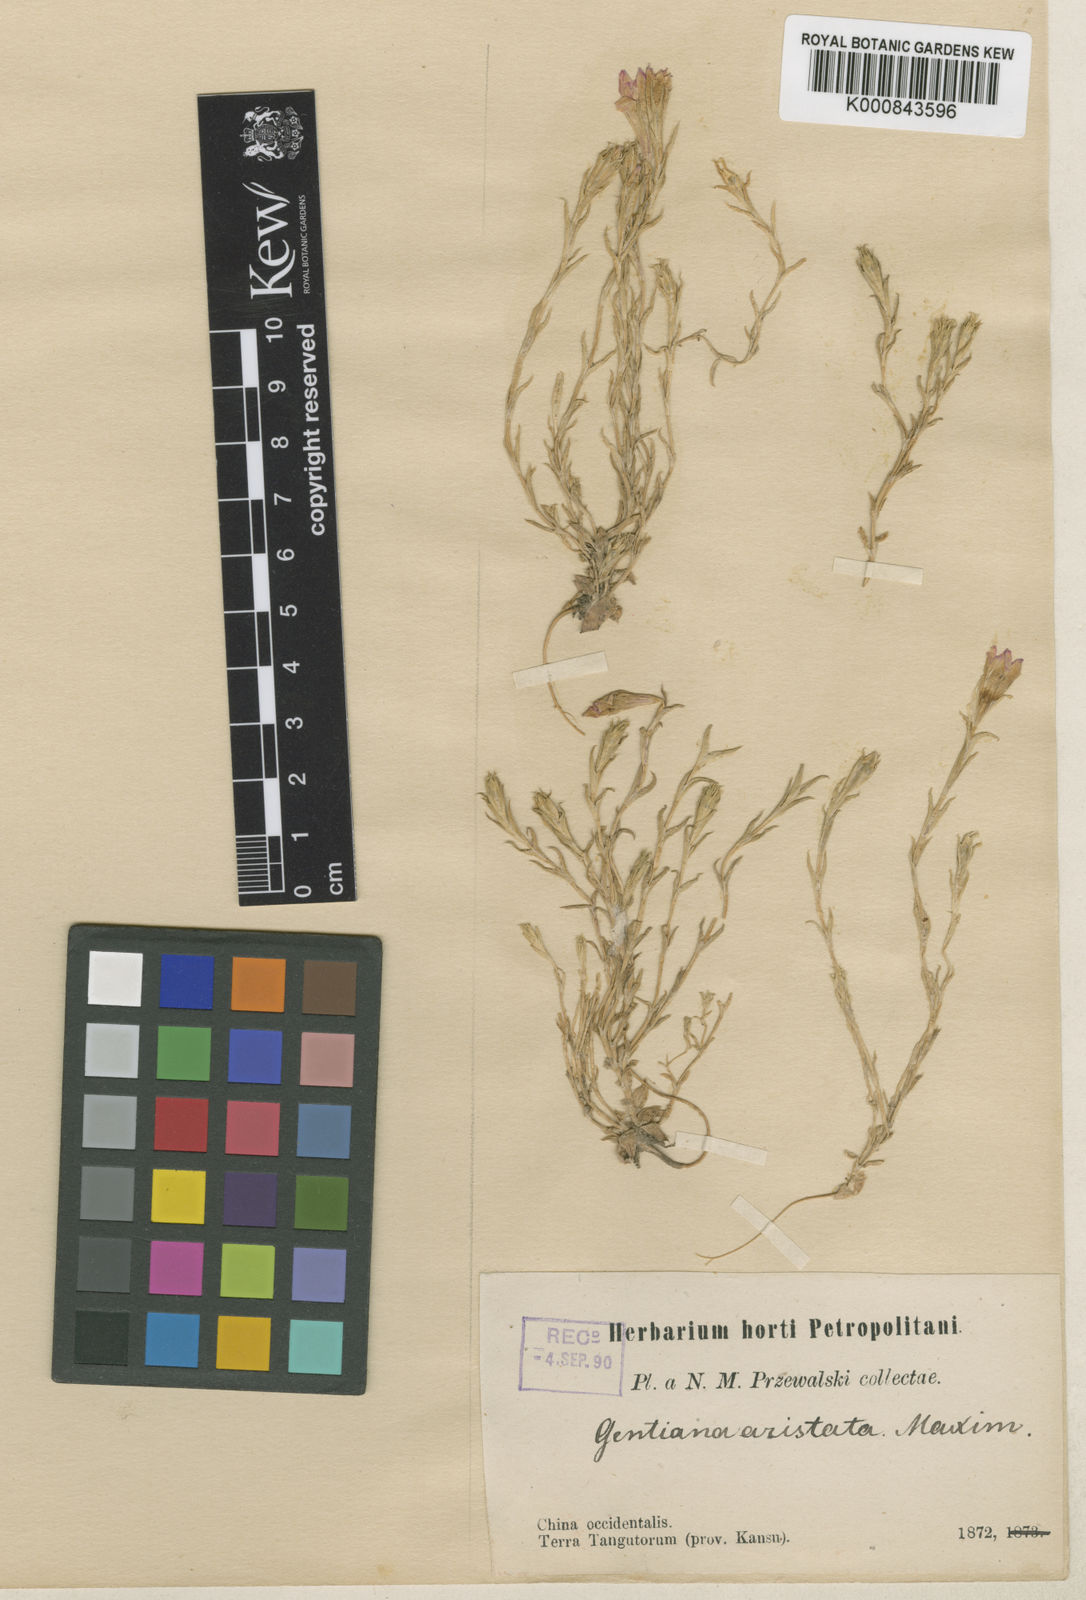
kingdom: Plantae
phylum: Tracheophyta
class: Magnoliopsida
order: Gentianales
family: Gentianaceae
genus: Gentiana
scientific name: Gentiana aristata
